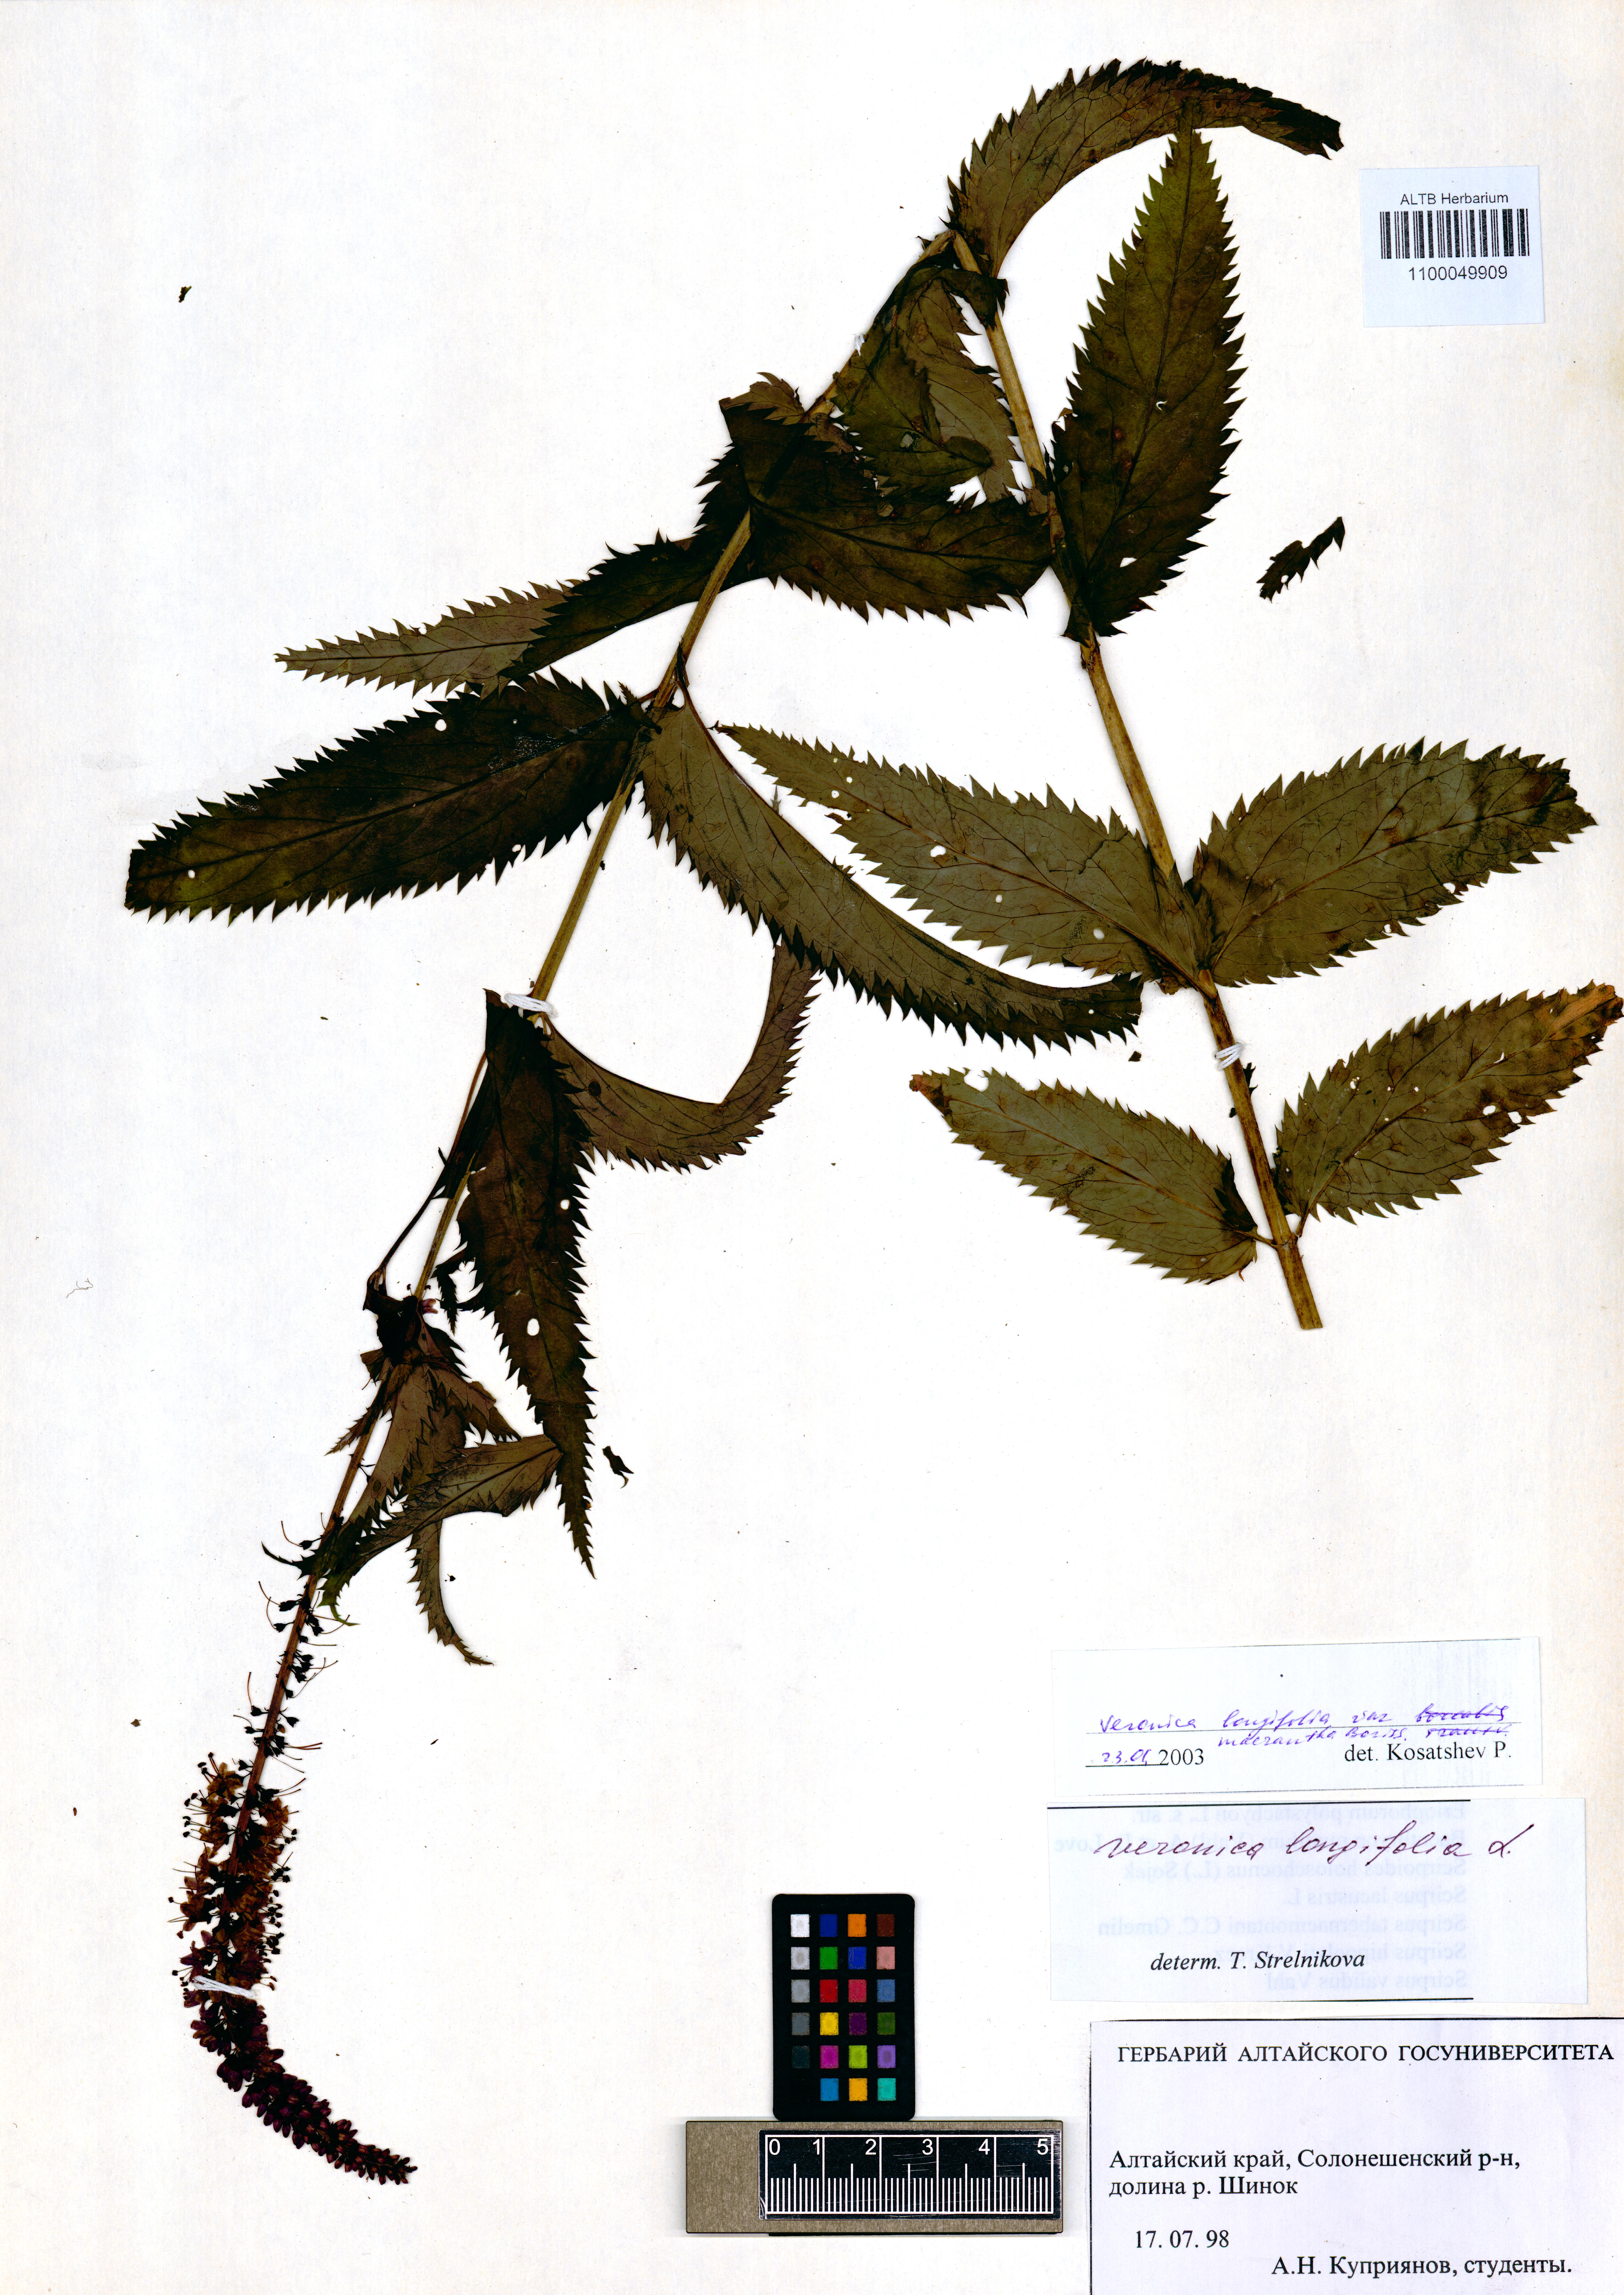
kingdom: Plantae
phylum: Tracheophyta
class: Magnoliopsida
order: Lamiales
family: Plantaginaceae
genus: Veronica
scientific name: Veronica longifolia
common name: Garden speedwell
